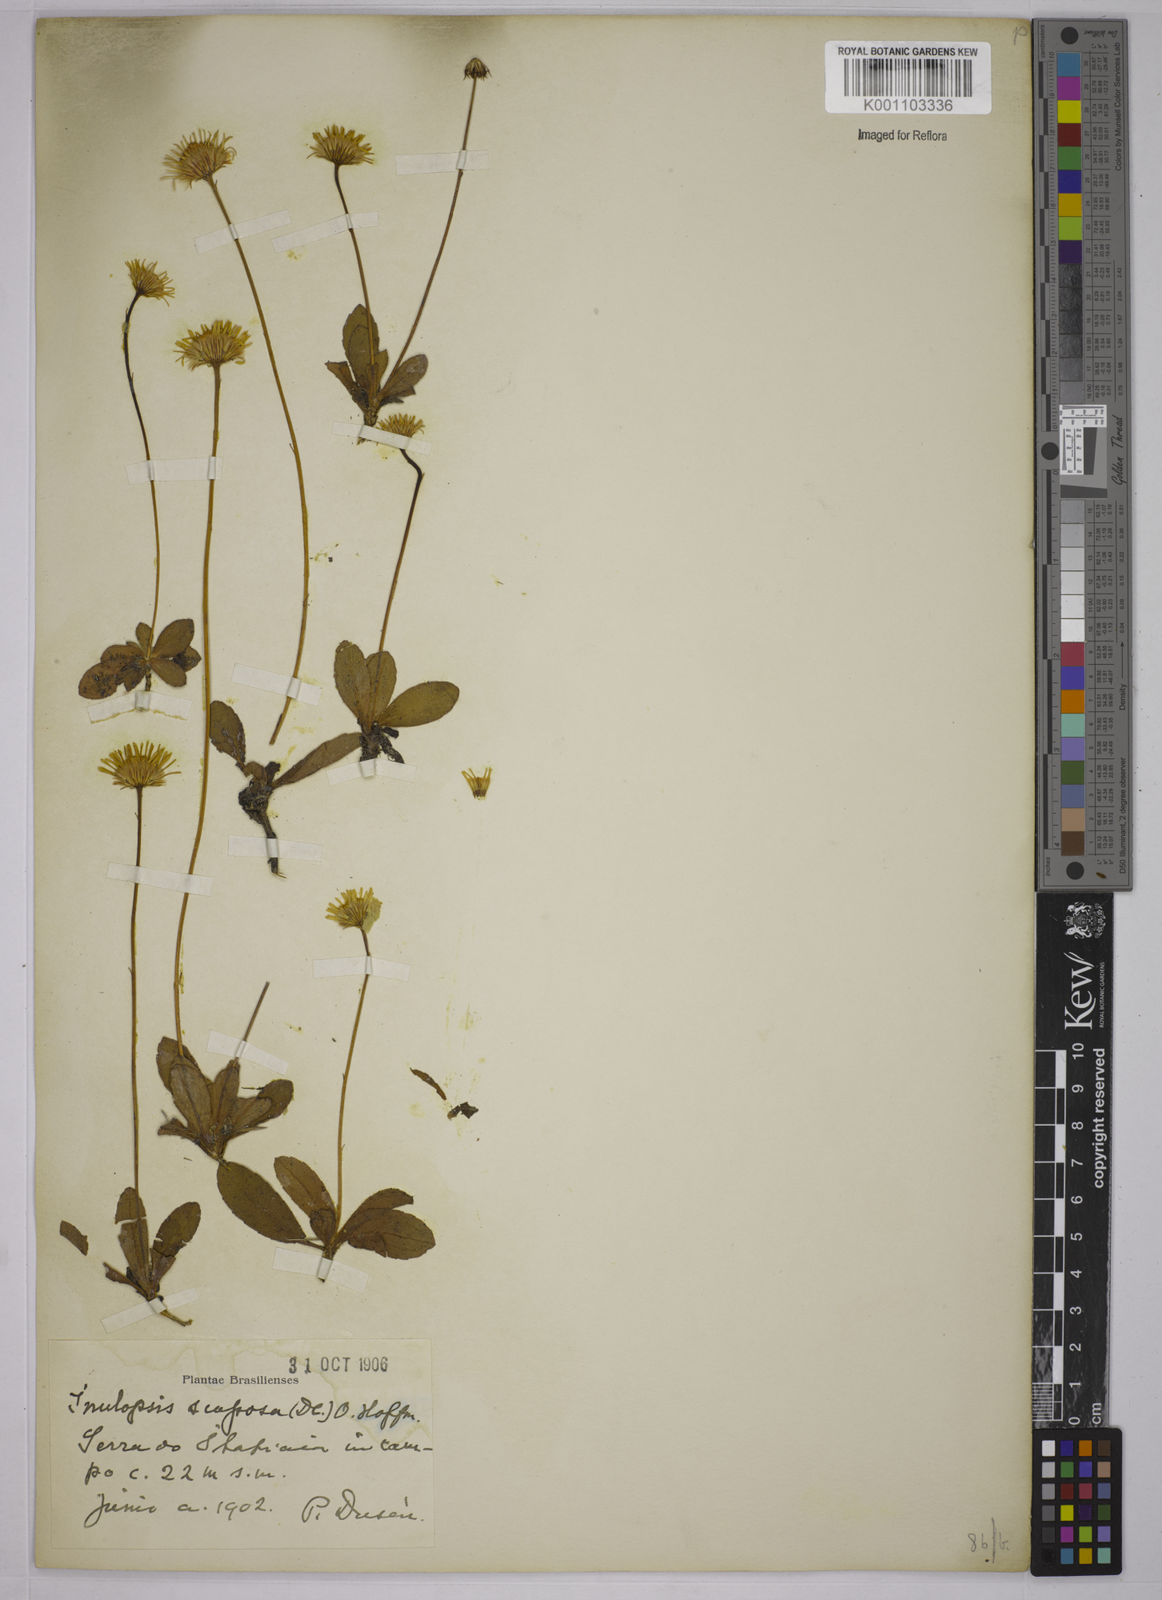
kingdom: Plantae
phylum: Tracheophyta
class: Magnoliopsida
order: Asterales
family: Asteraceae
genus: Inulopsis
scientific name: Inulopsis scaposa
